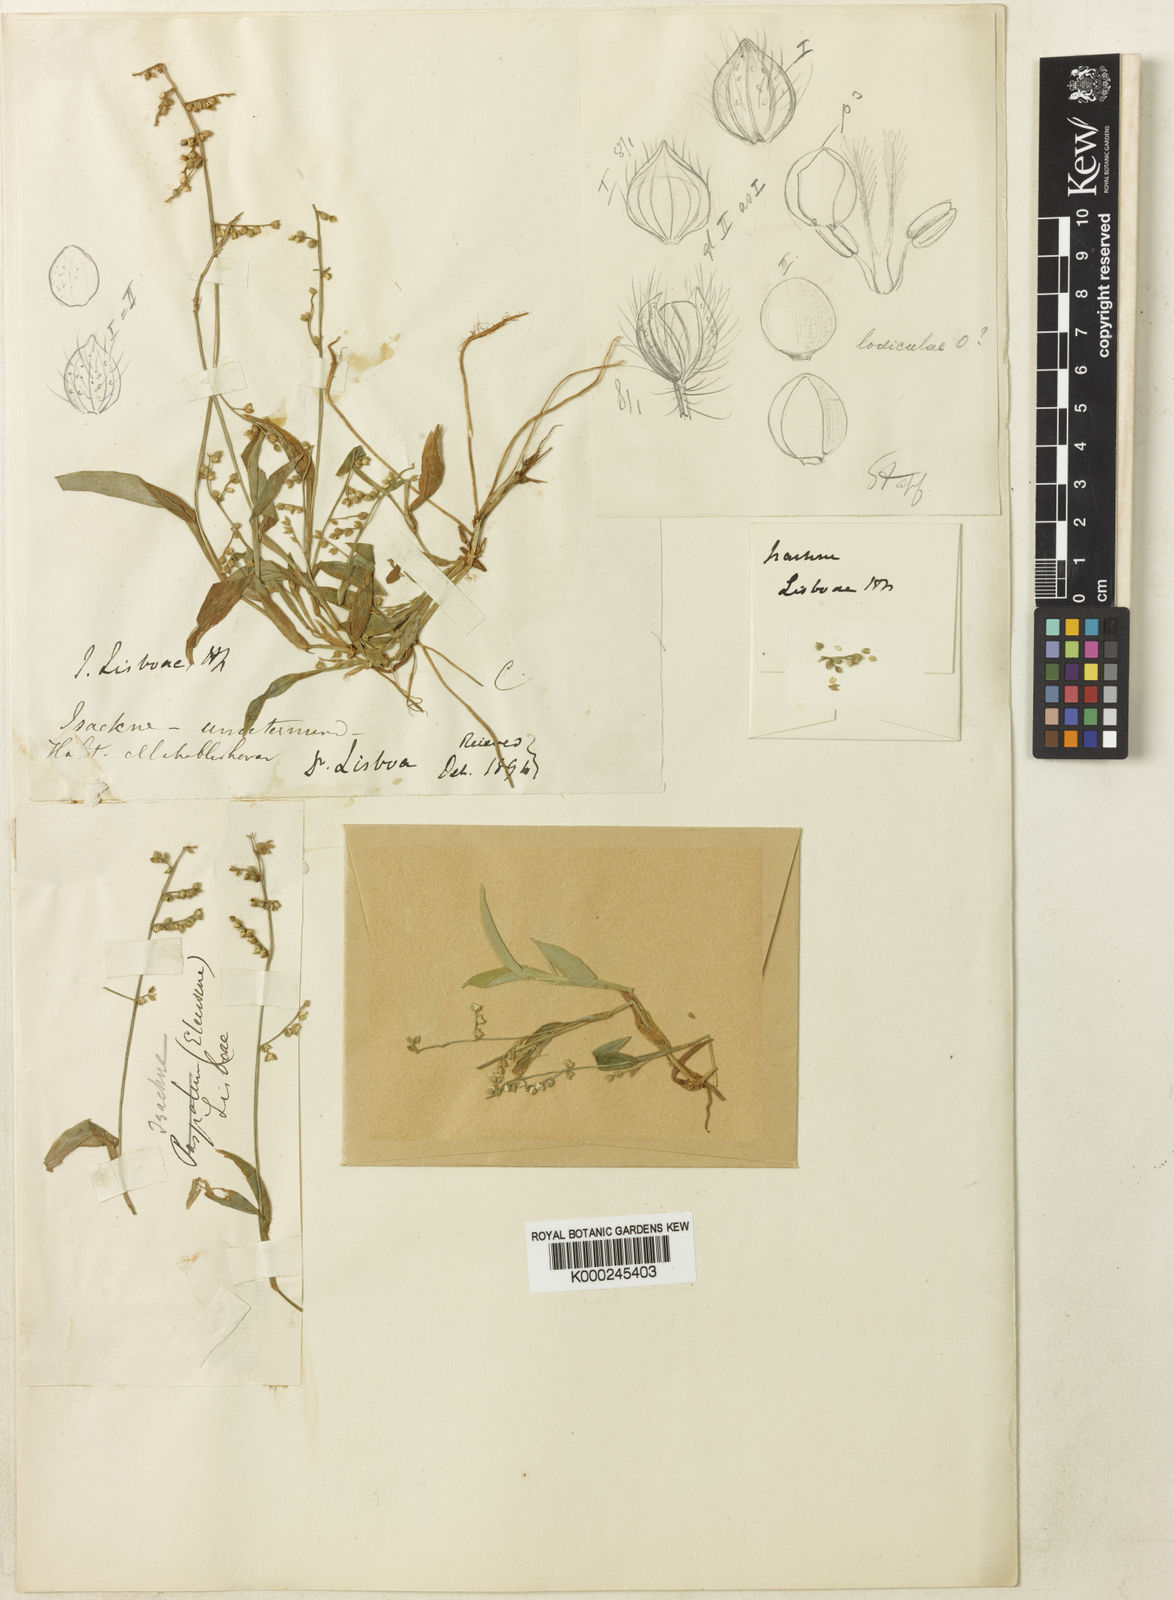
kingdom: Plantae
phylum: Tracheophyta
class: Liliopsida
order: Poales
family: Poaceae
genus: Isachne
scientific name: Isachne lisboae
